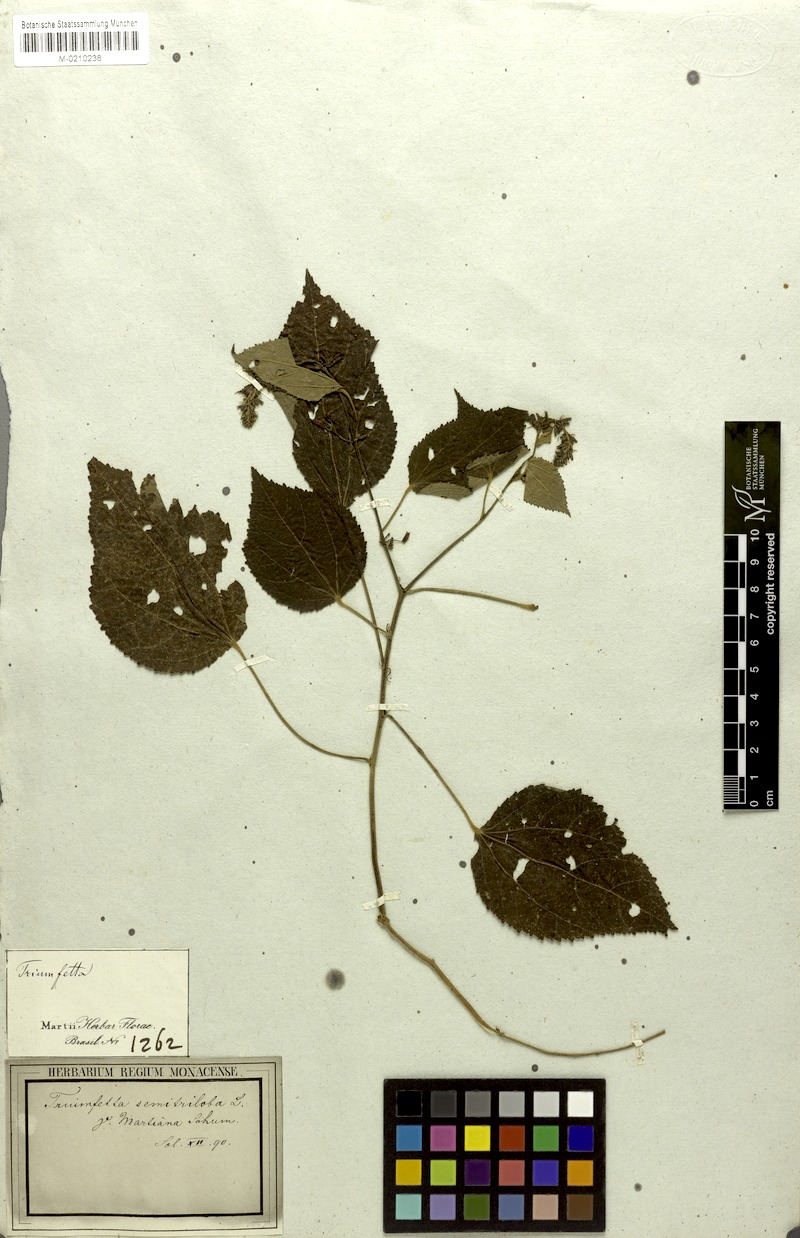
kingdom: Plantae
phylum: Tracheophyta
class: Magnoliopsida
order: Malvales
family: Malvaceae
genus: Triumfetta
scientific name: Triumfetta semitriloba
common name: Sacramento burbark
